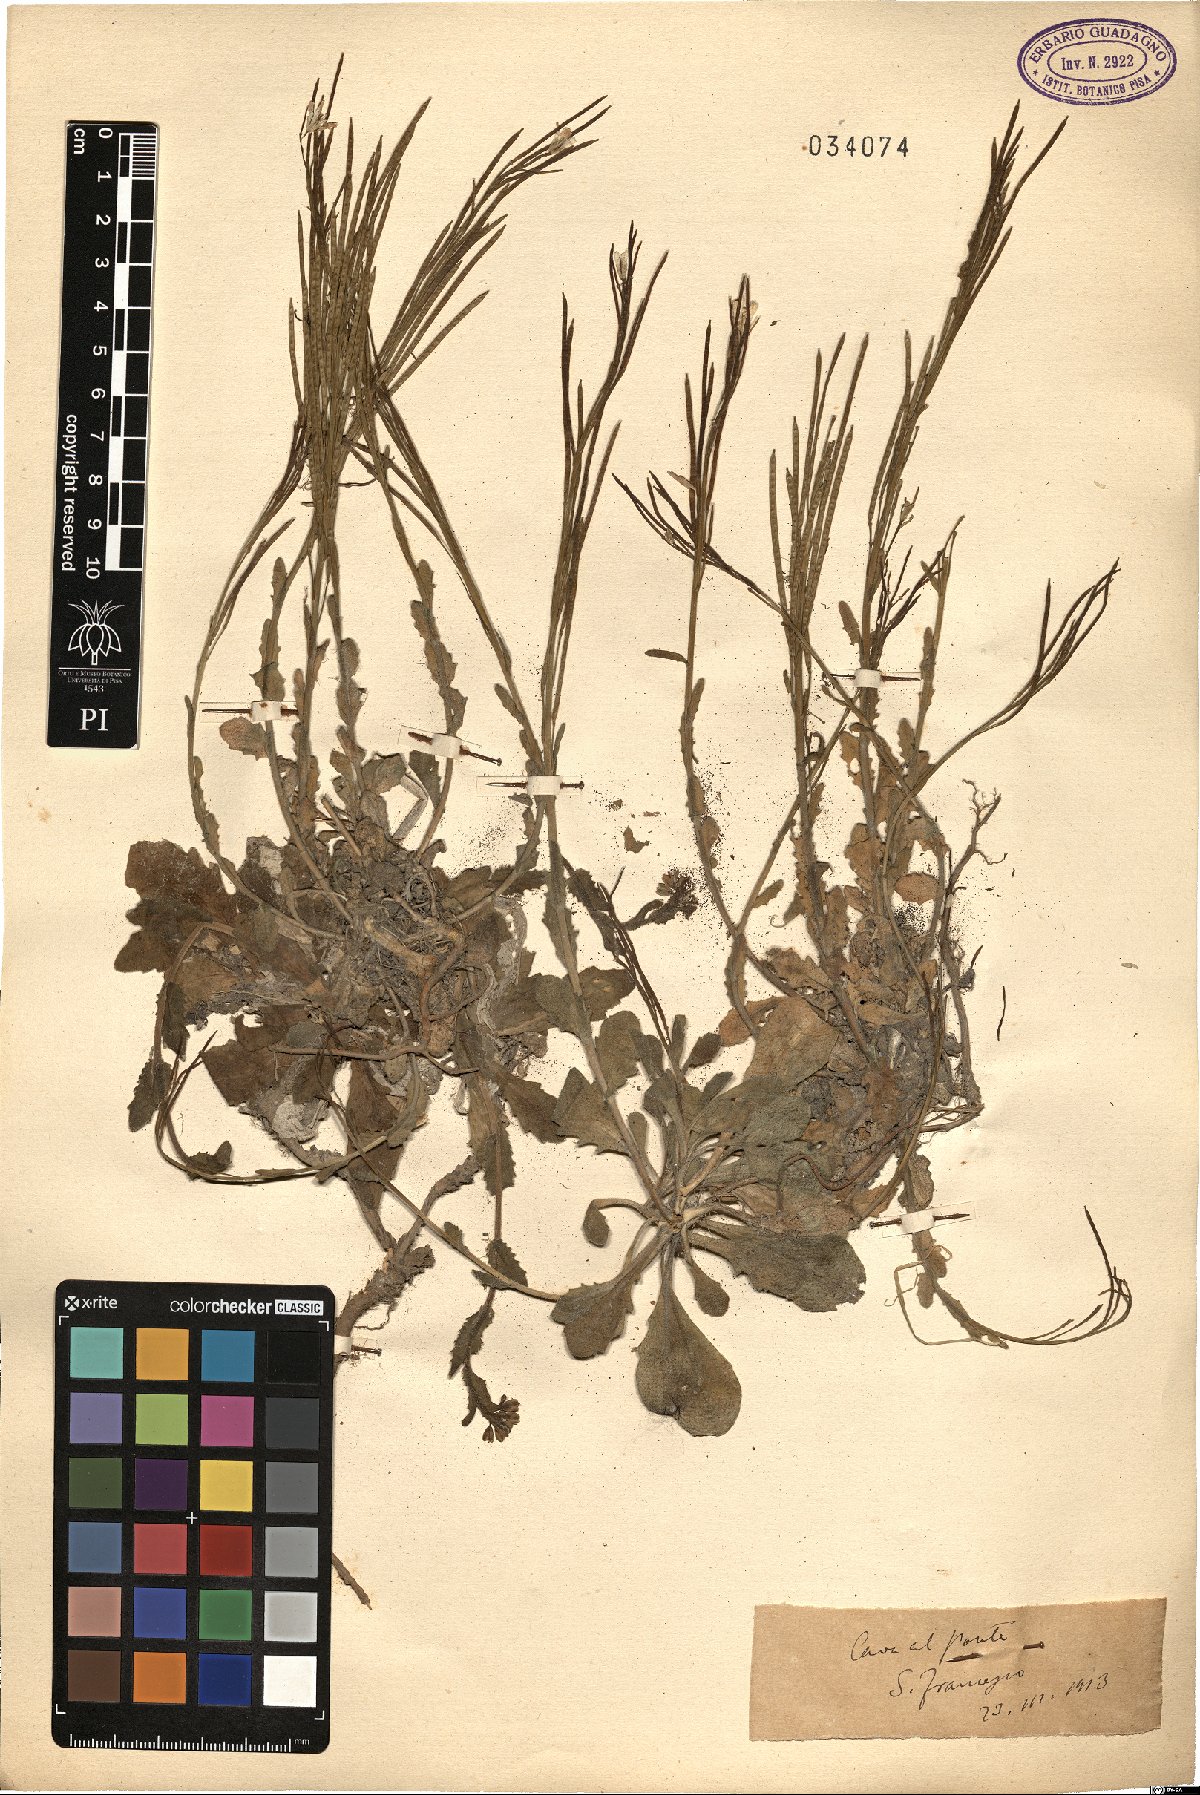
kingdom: Plantae
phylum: Tracheophyta
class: Magnoliopsida
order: Brassicales
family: Brassicaceae
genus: Arabis
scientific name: Arabis
